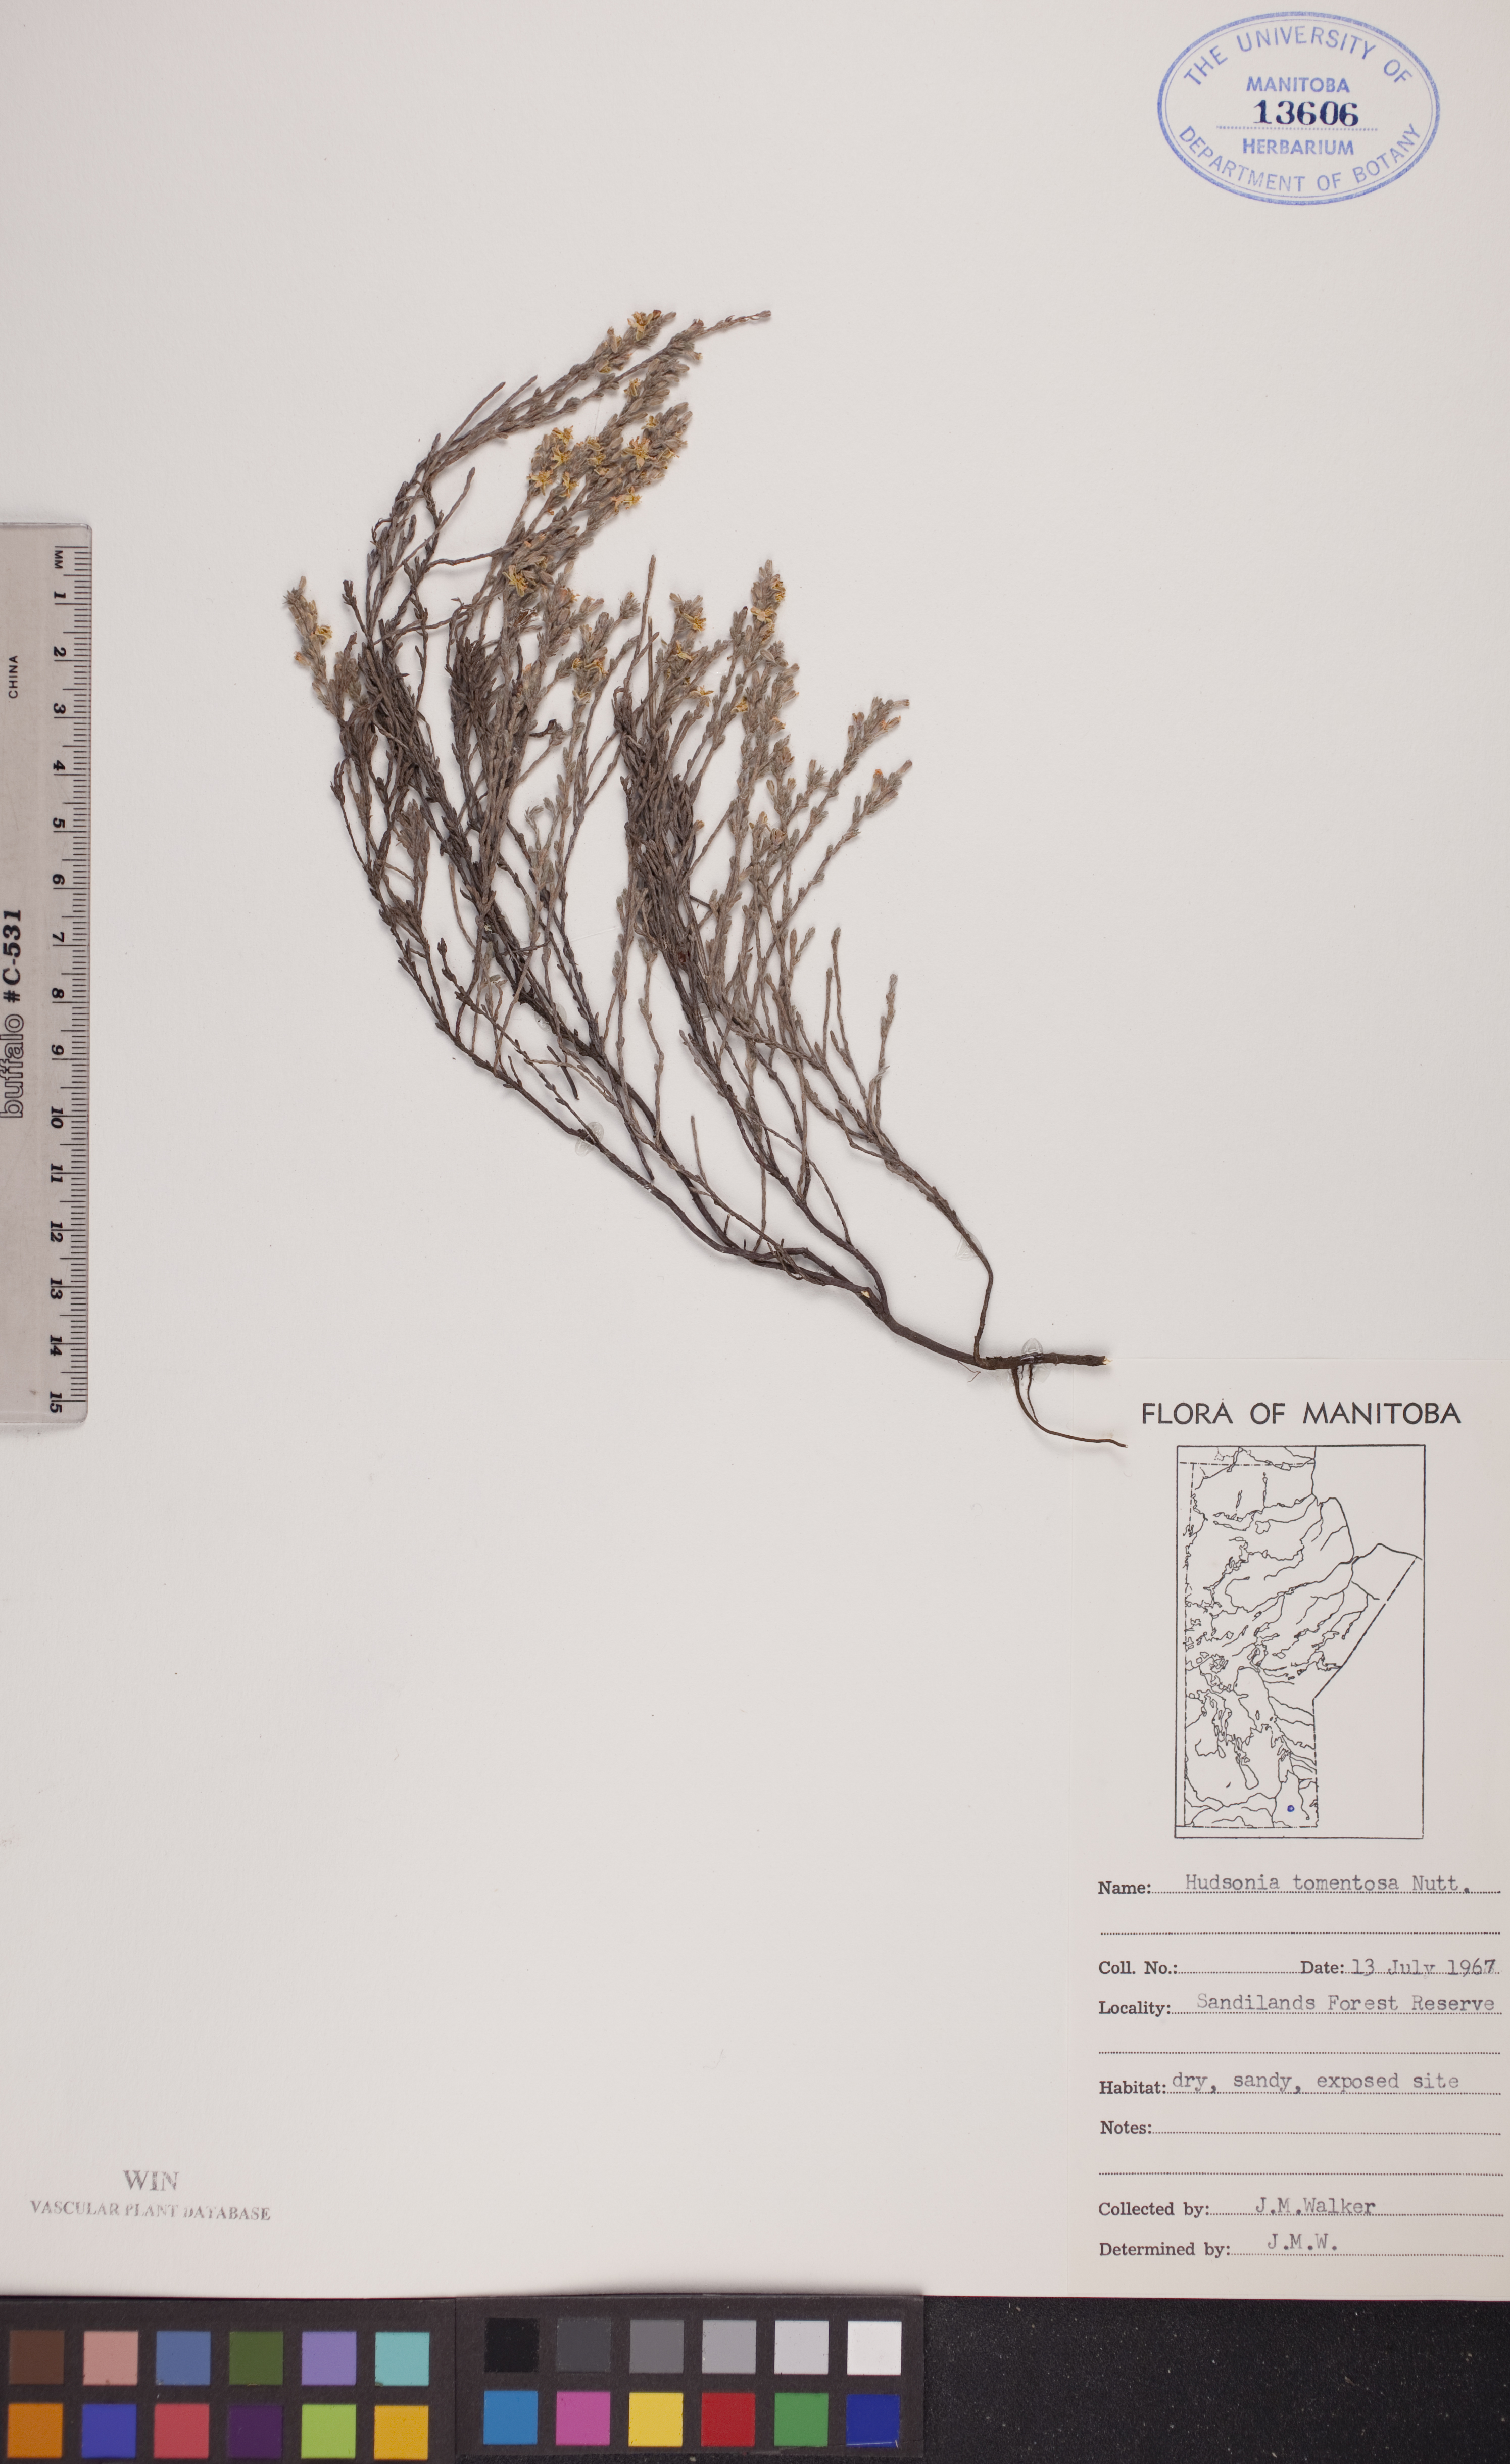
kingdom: Plantae
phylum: Tracheophyta
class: Magnoliopsida
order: Malvales
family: Cistaceae
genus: Hudsonia
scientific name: Hudsonia tomentosa
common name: Beach-heath
